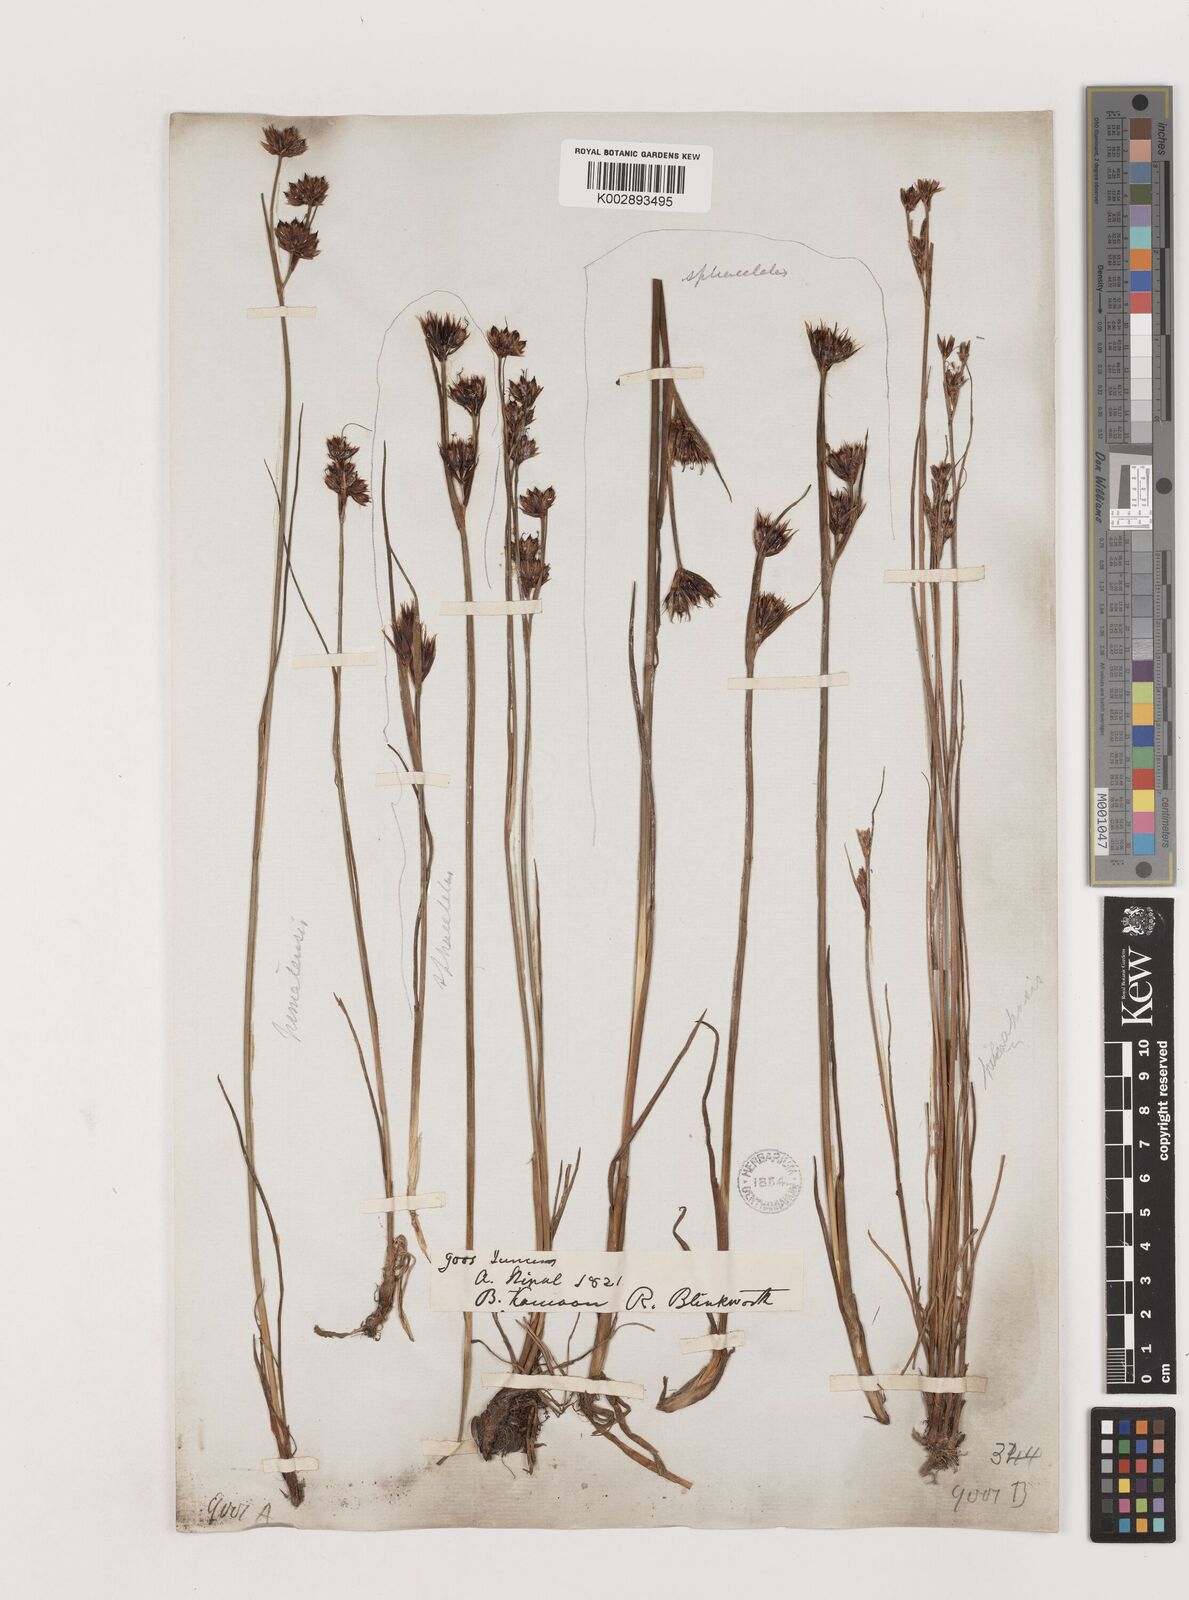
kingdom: Plantae
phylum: Tracheophyta
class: Liliopsida
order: Poales
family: Juncaceae
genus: Juncus
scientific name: Juncus sphacelatus
